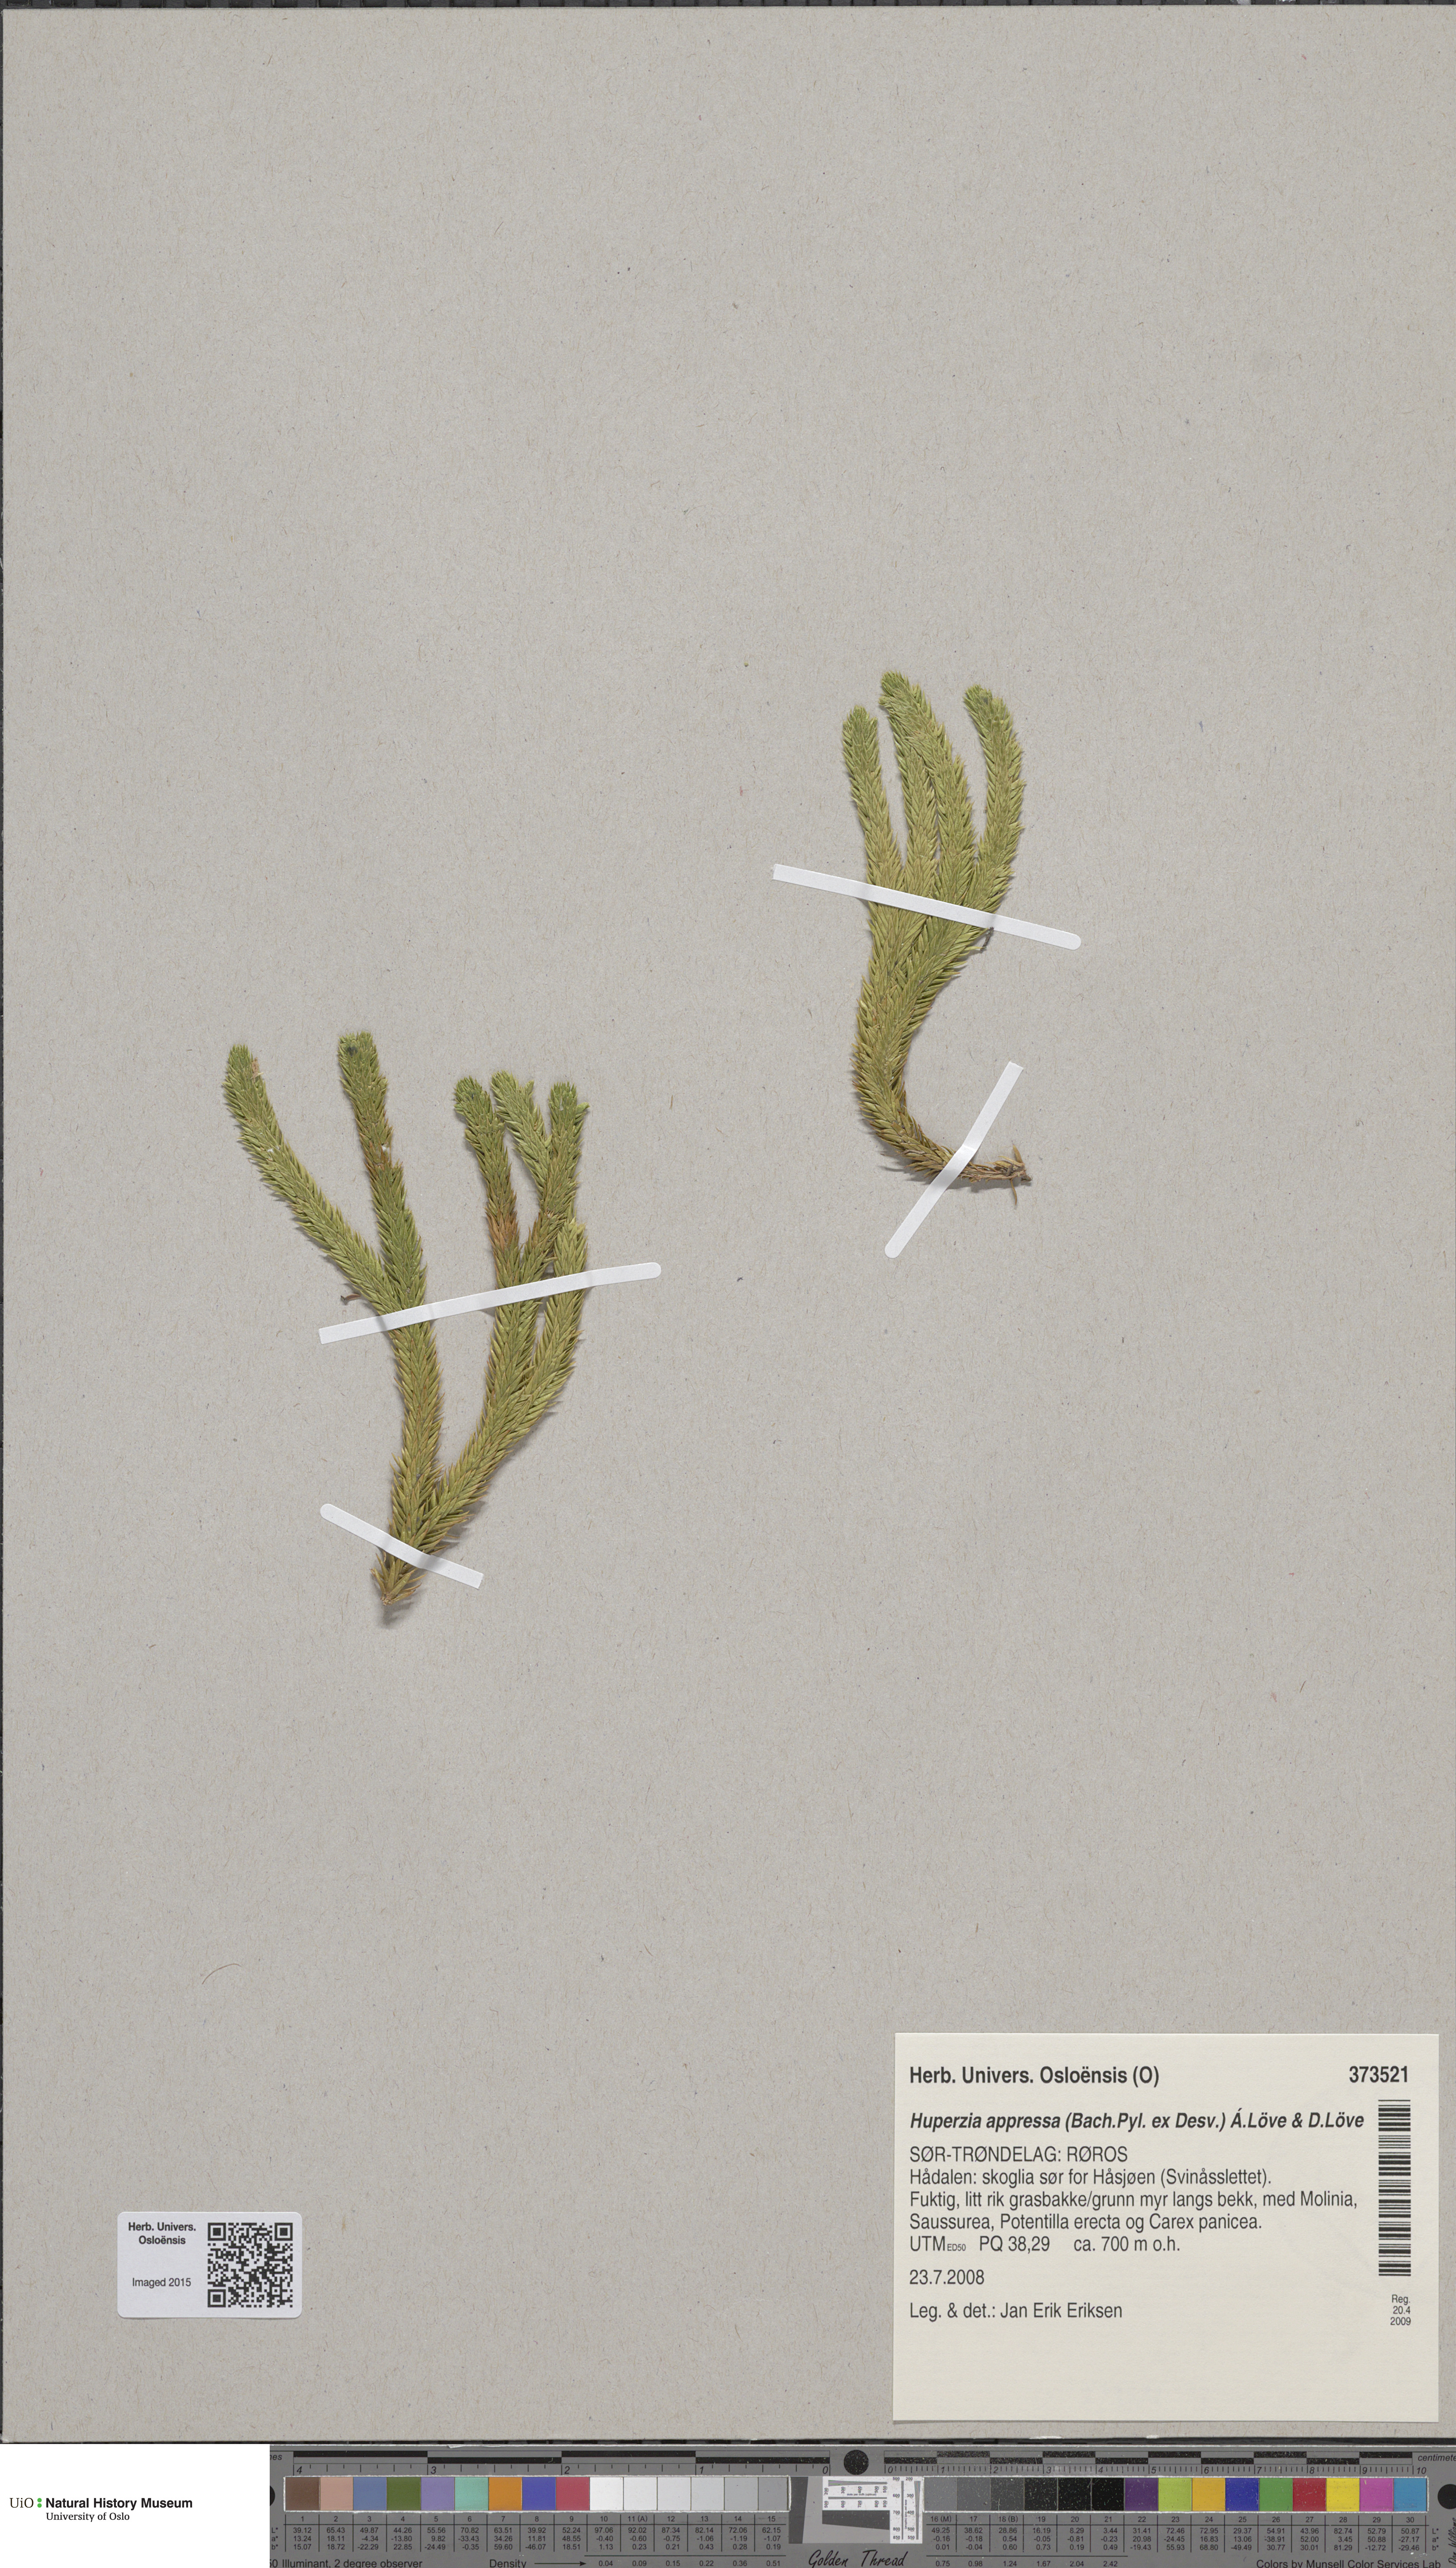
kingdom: Plantae
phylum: Tracheophyta
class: Lycopodiopsida
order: Lycopodiales
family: Lycopodiaceae
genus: Huperzia
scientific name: Huperzia selago
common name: Northern firmoss
